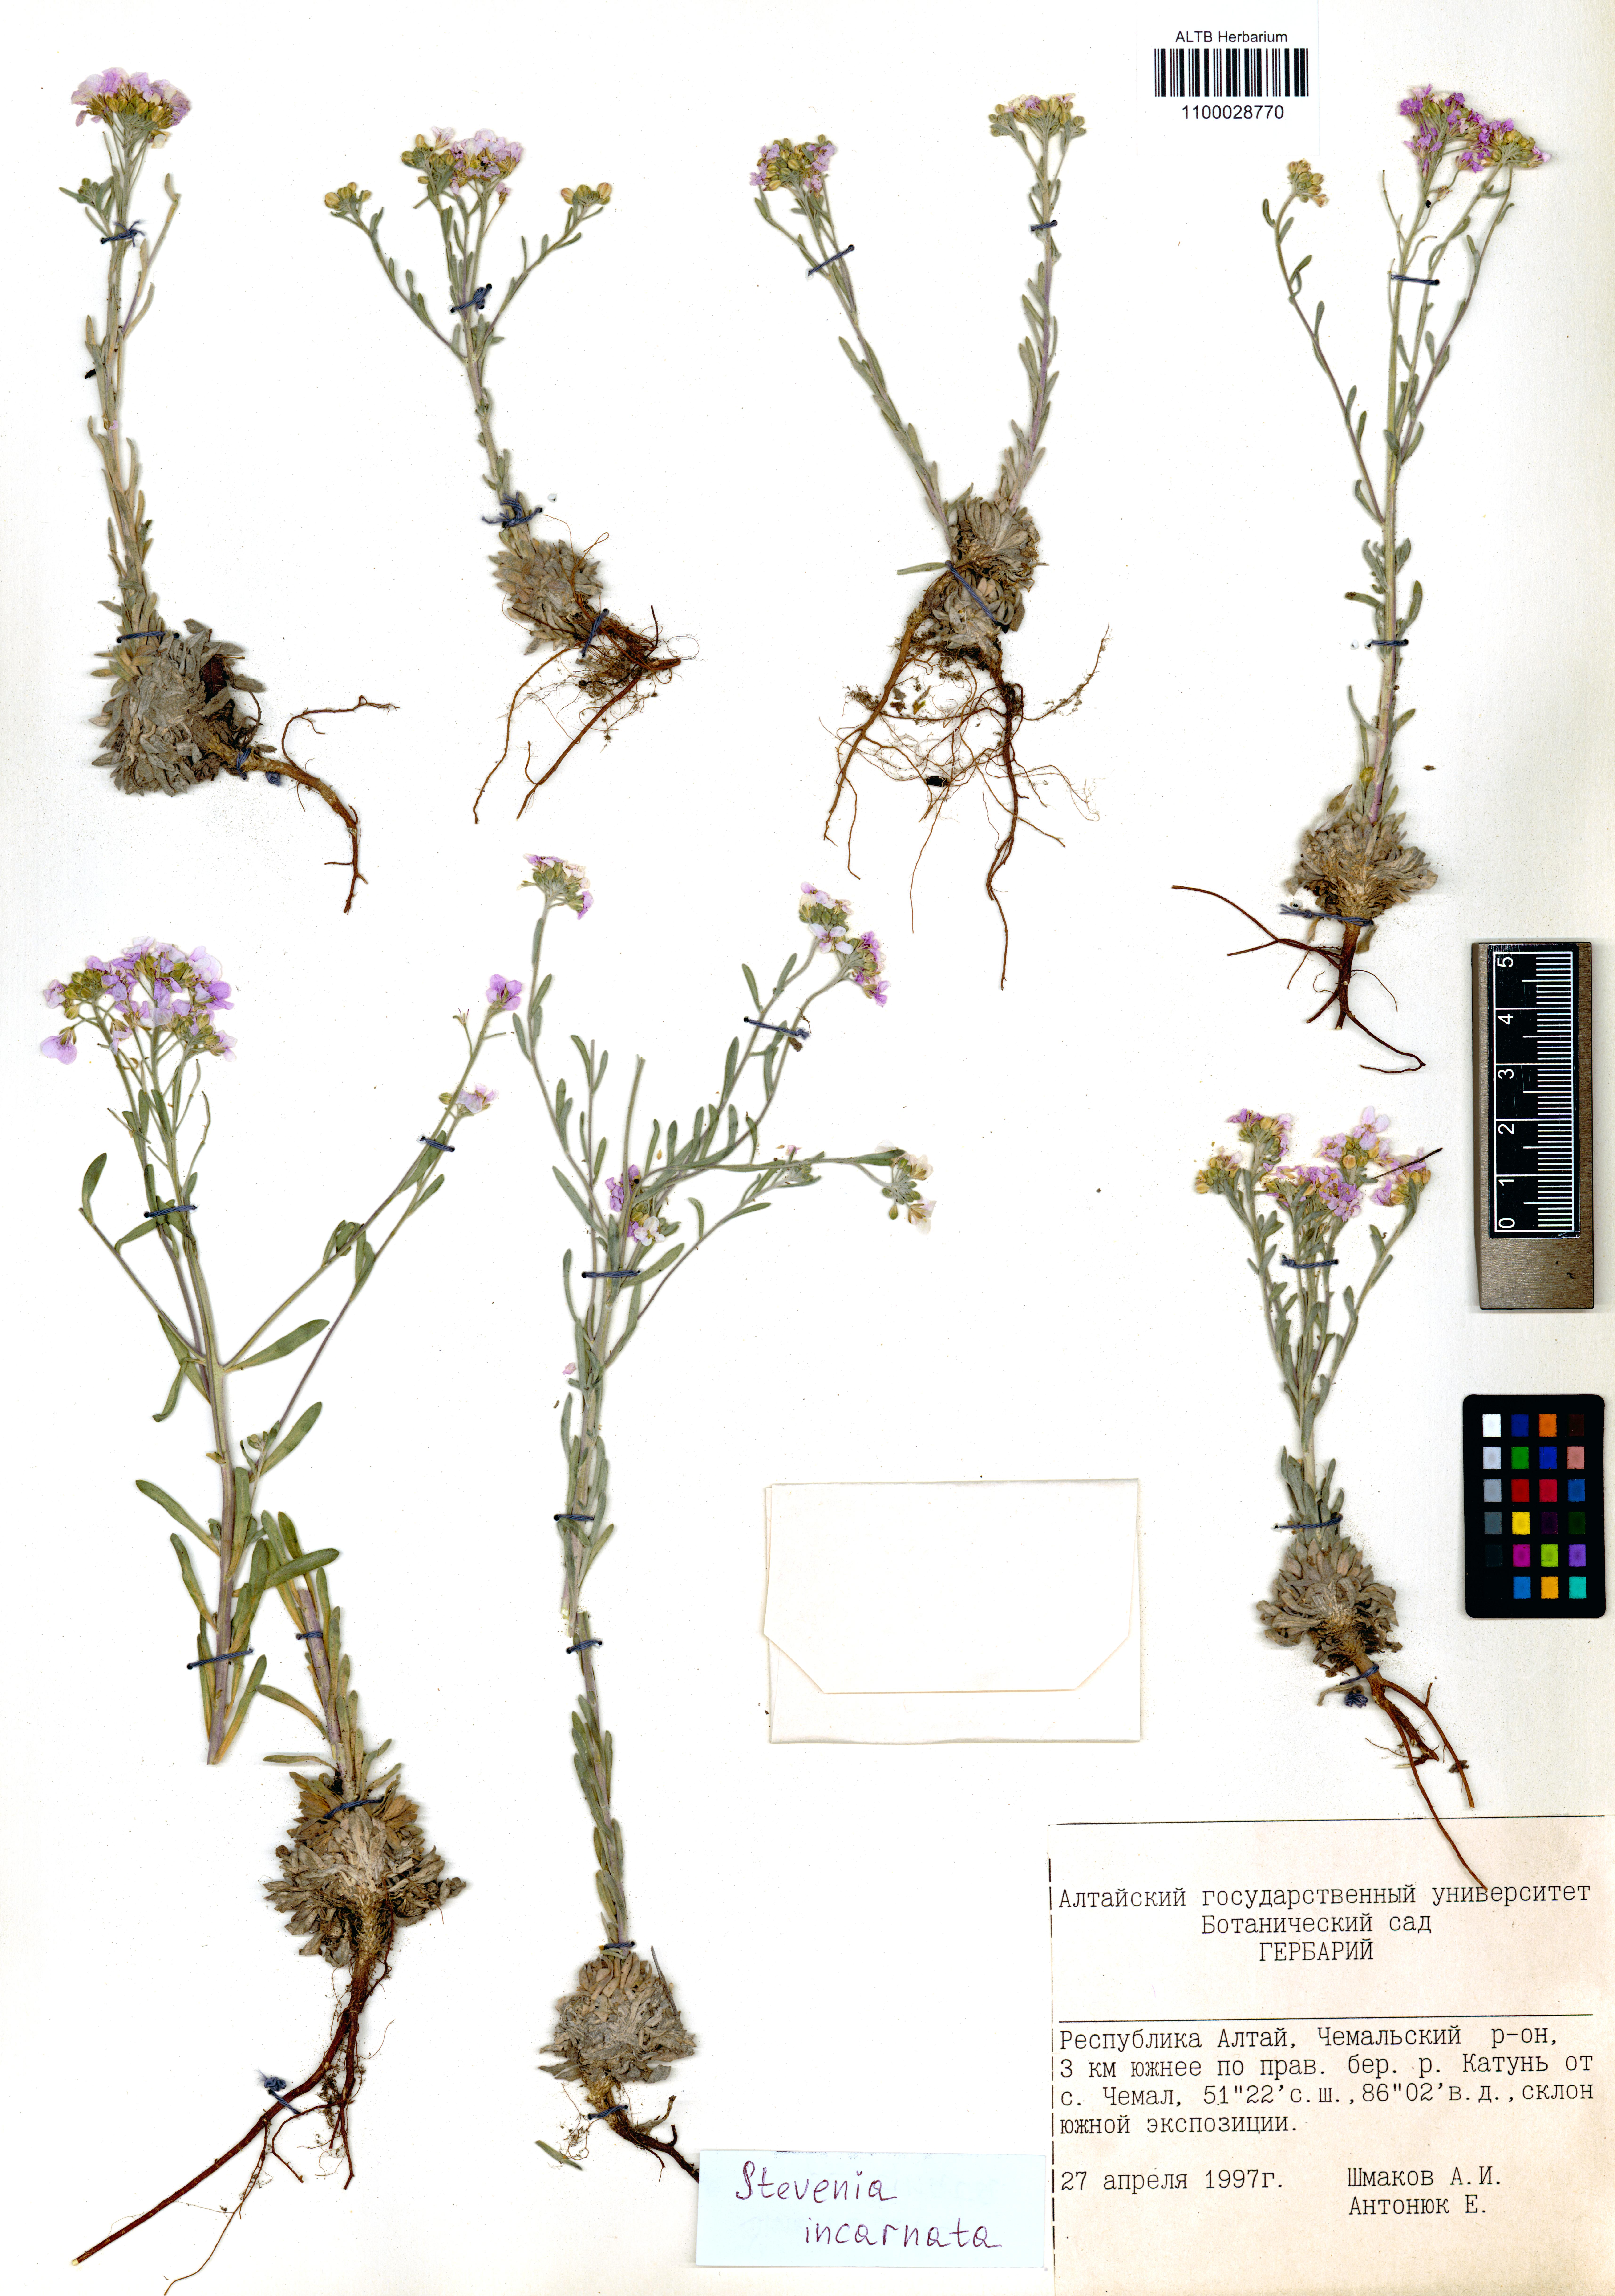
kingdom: Plantae
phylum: Tracheophyta
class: Magnoliopsida
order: Brassicales
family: Brassicaceae
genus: Stevenia
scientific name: Stevenia incarnata
